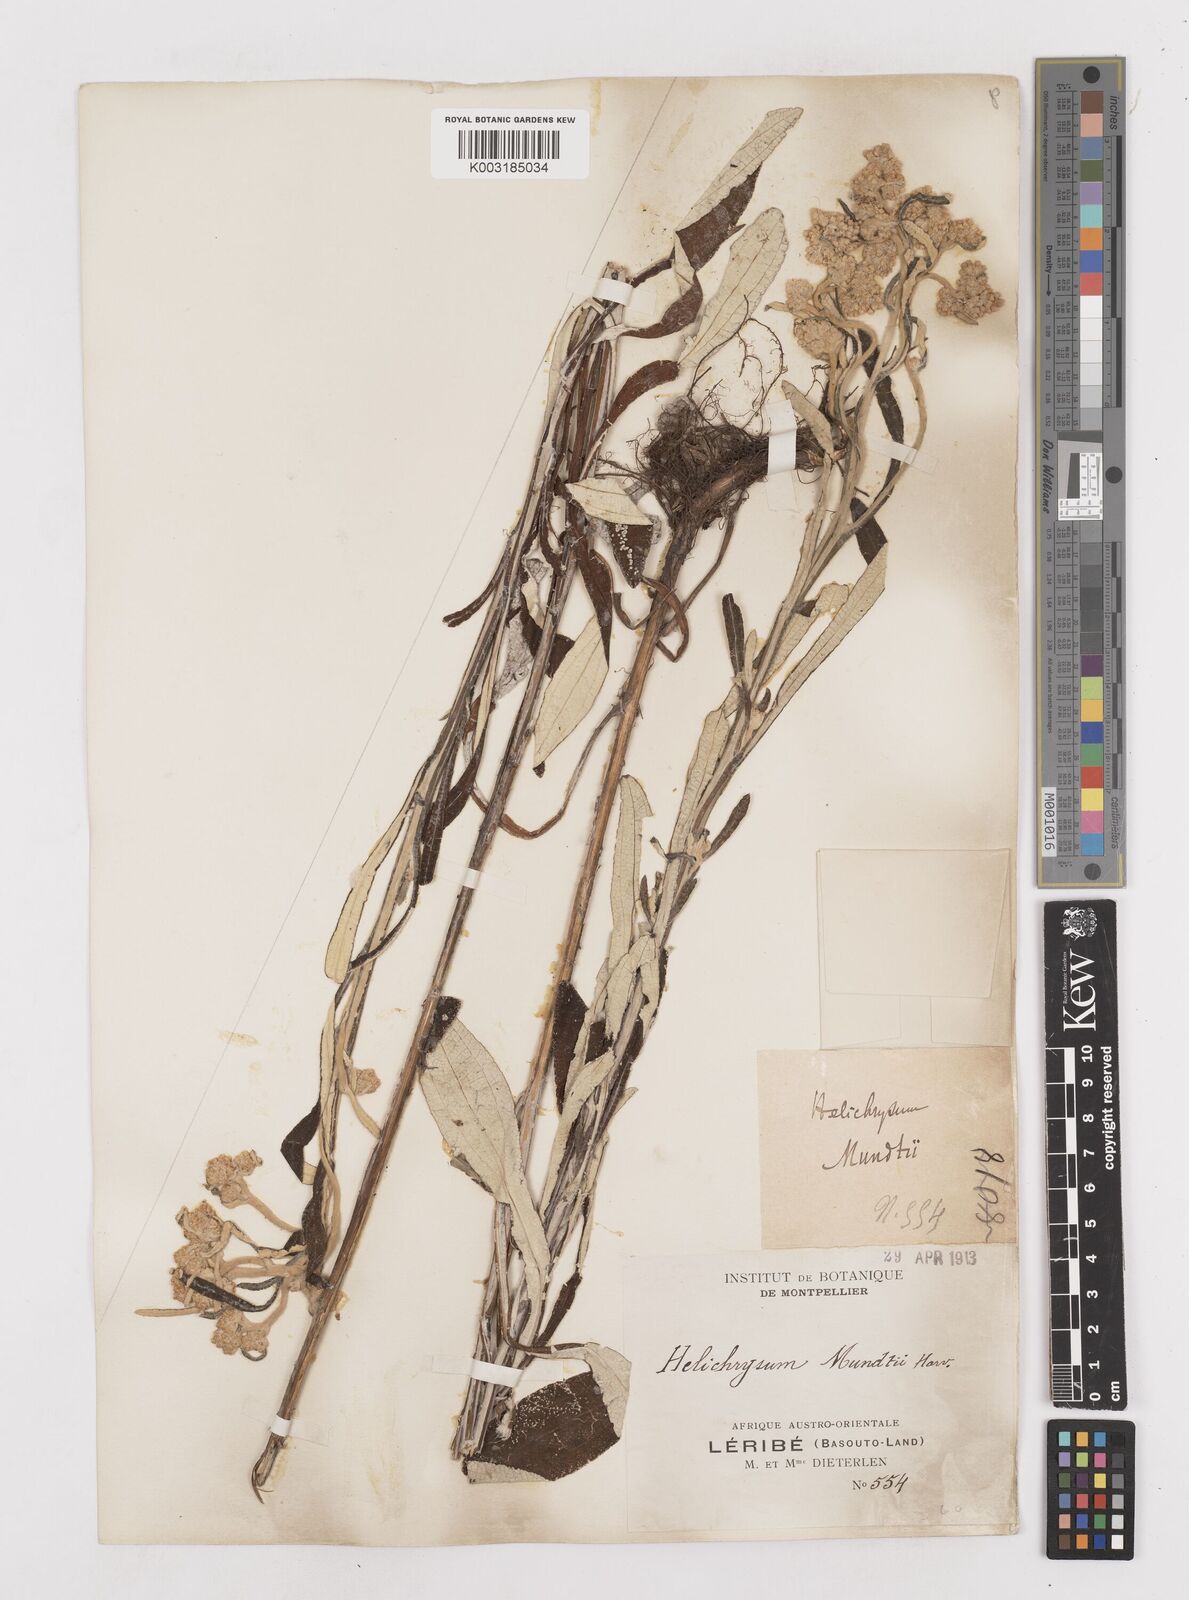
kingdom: Plantae
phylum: Tracheophyta
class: Magnoliopsida
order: Asterales
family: Asteraceae
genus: Helichrysum
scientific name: Helichrysum mundii
